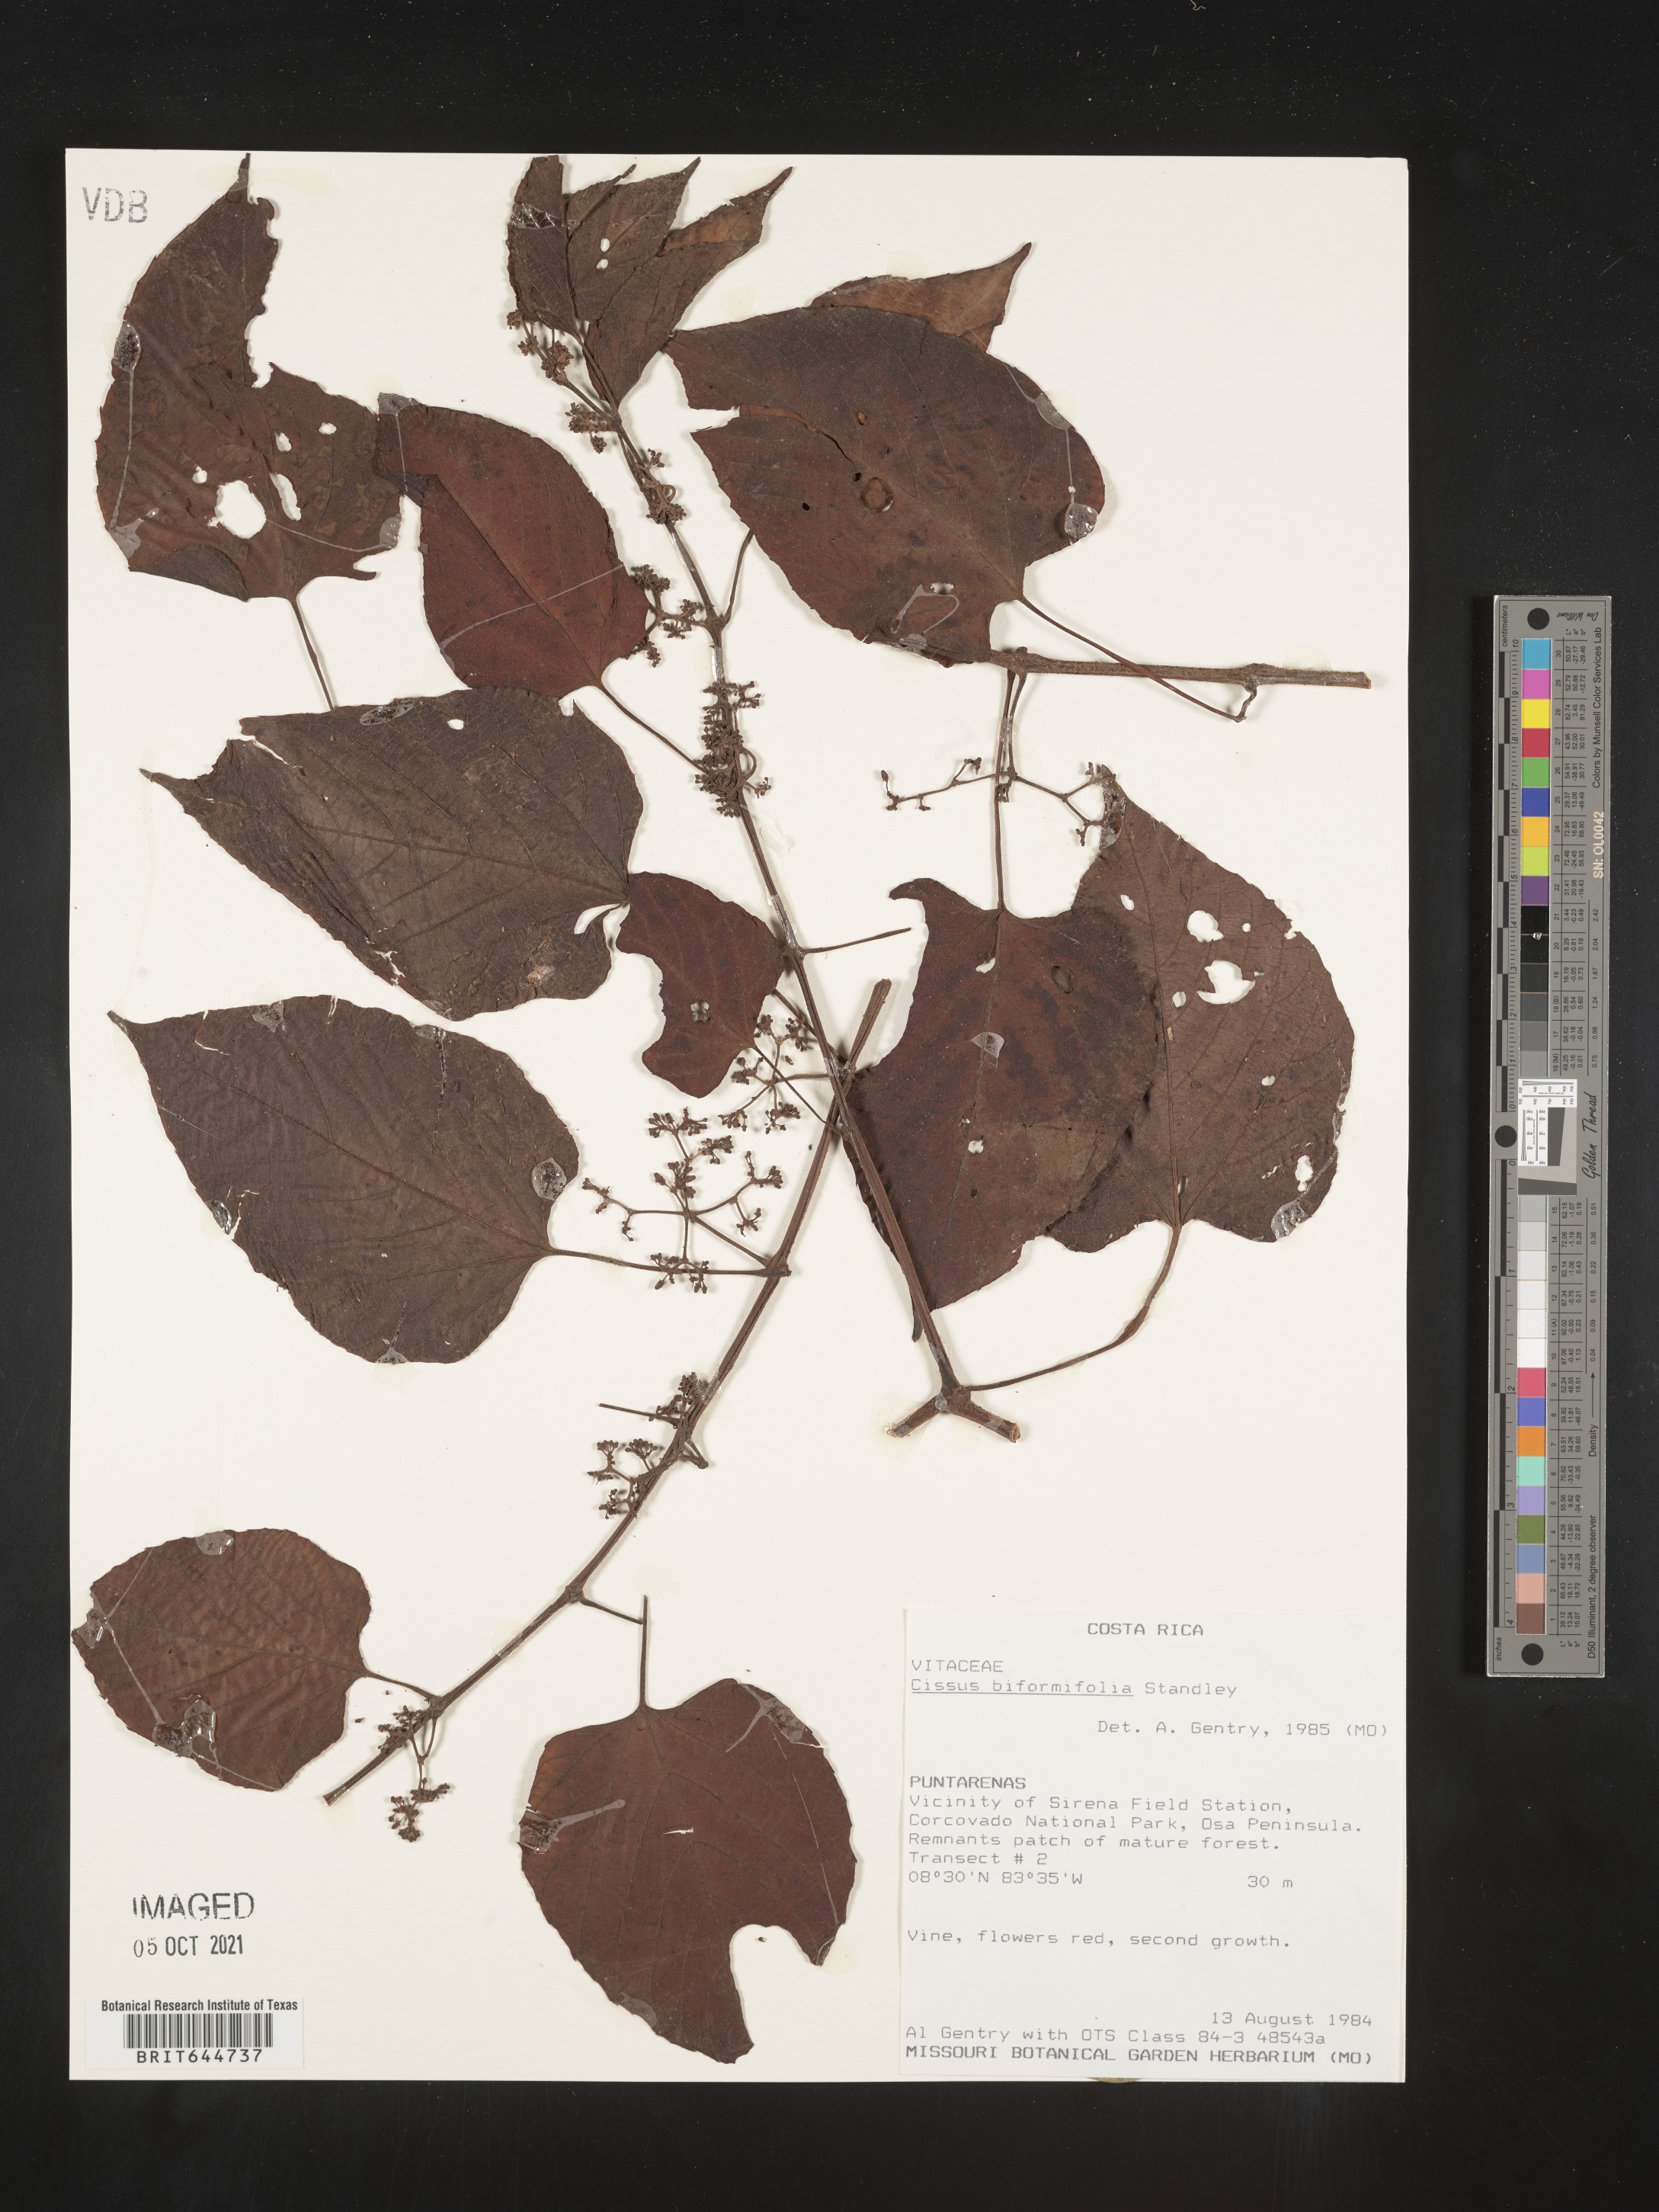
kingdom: Plantae
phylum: Tracheophyta
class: Magnoliopsida
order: Vitales
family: Vitaceae
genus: Cissus
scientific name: Cissus
